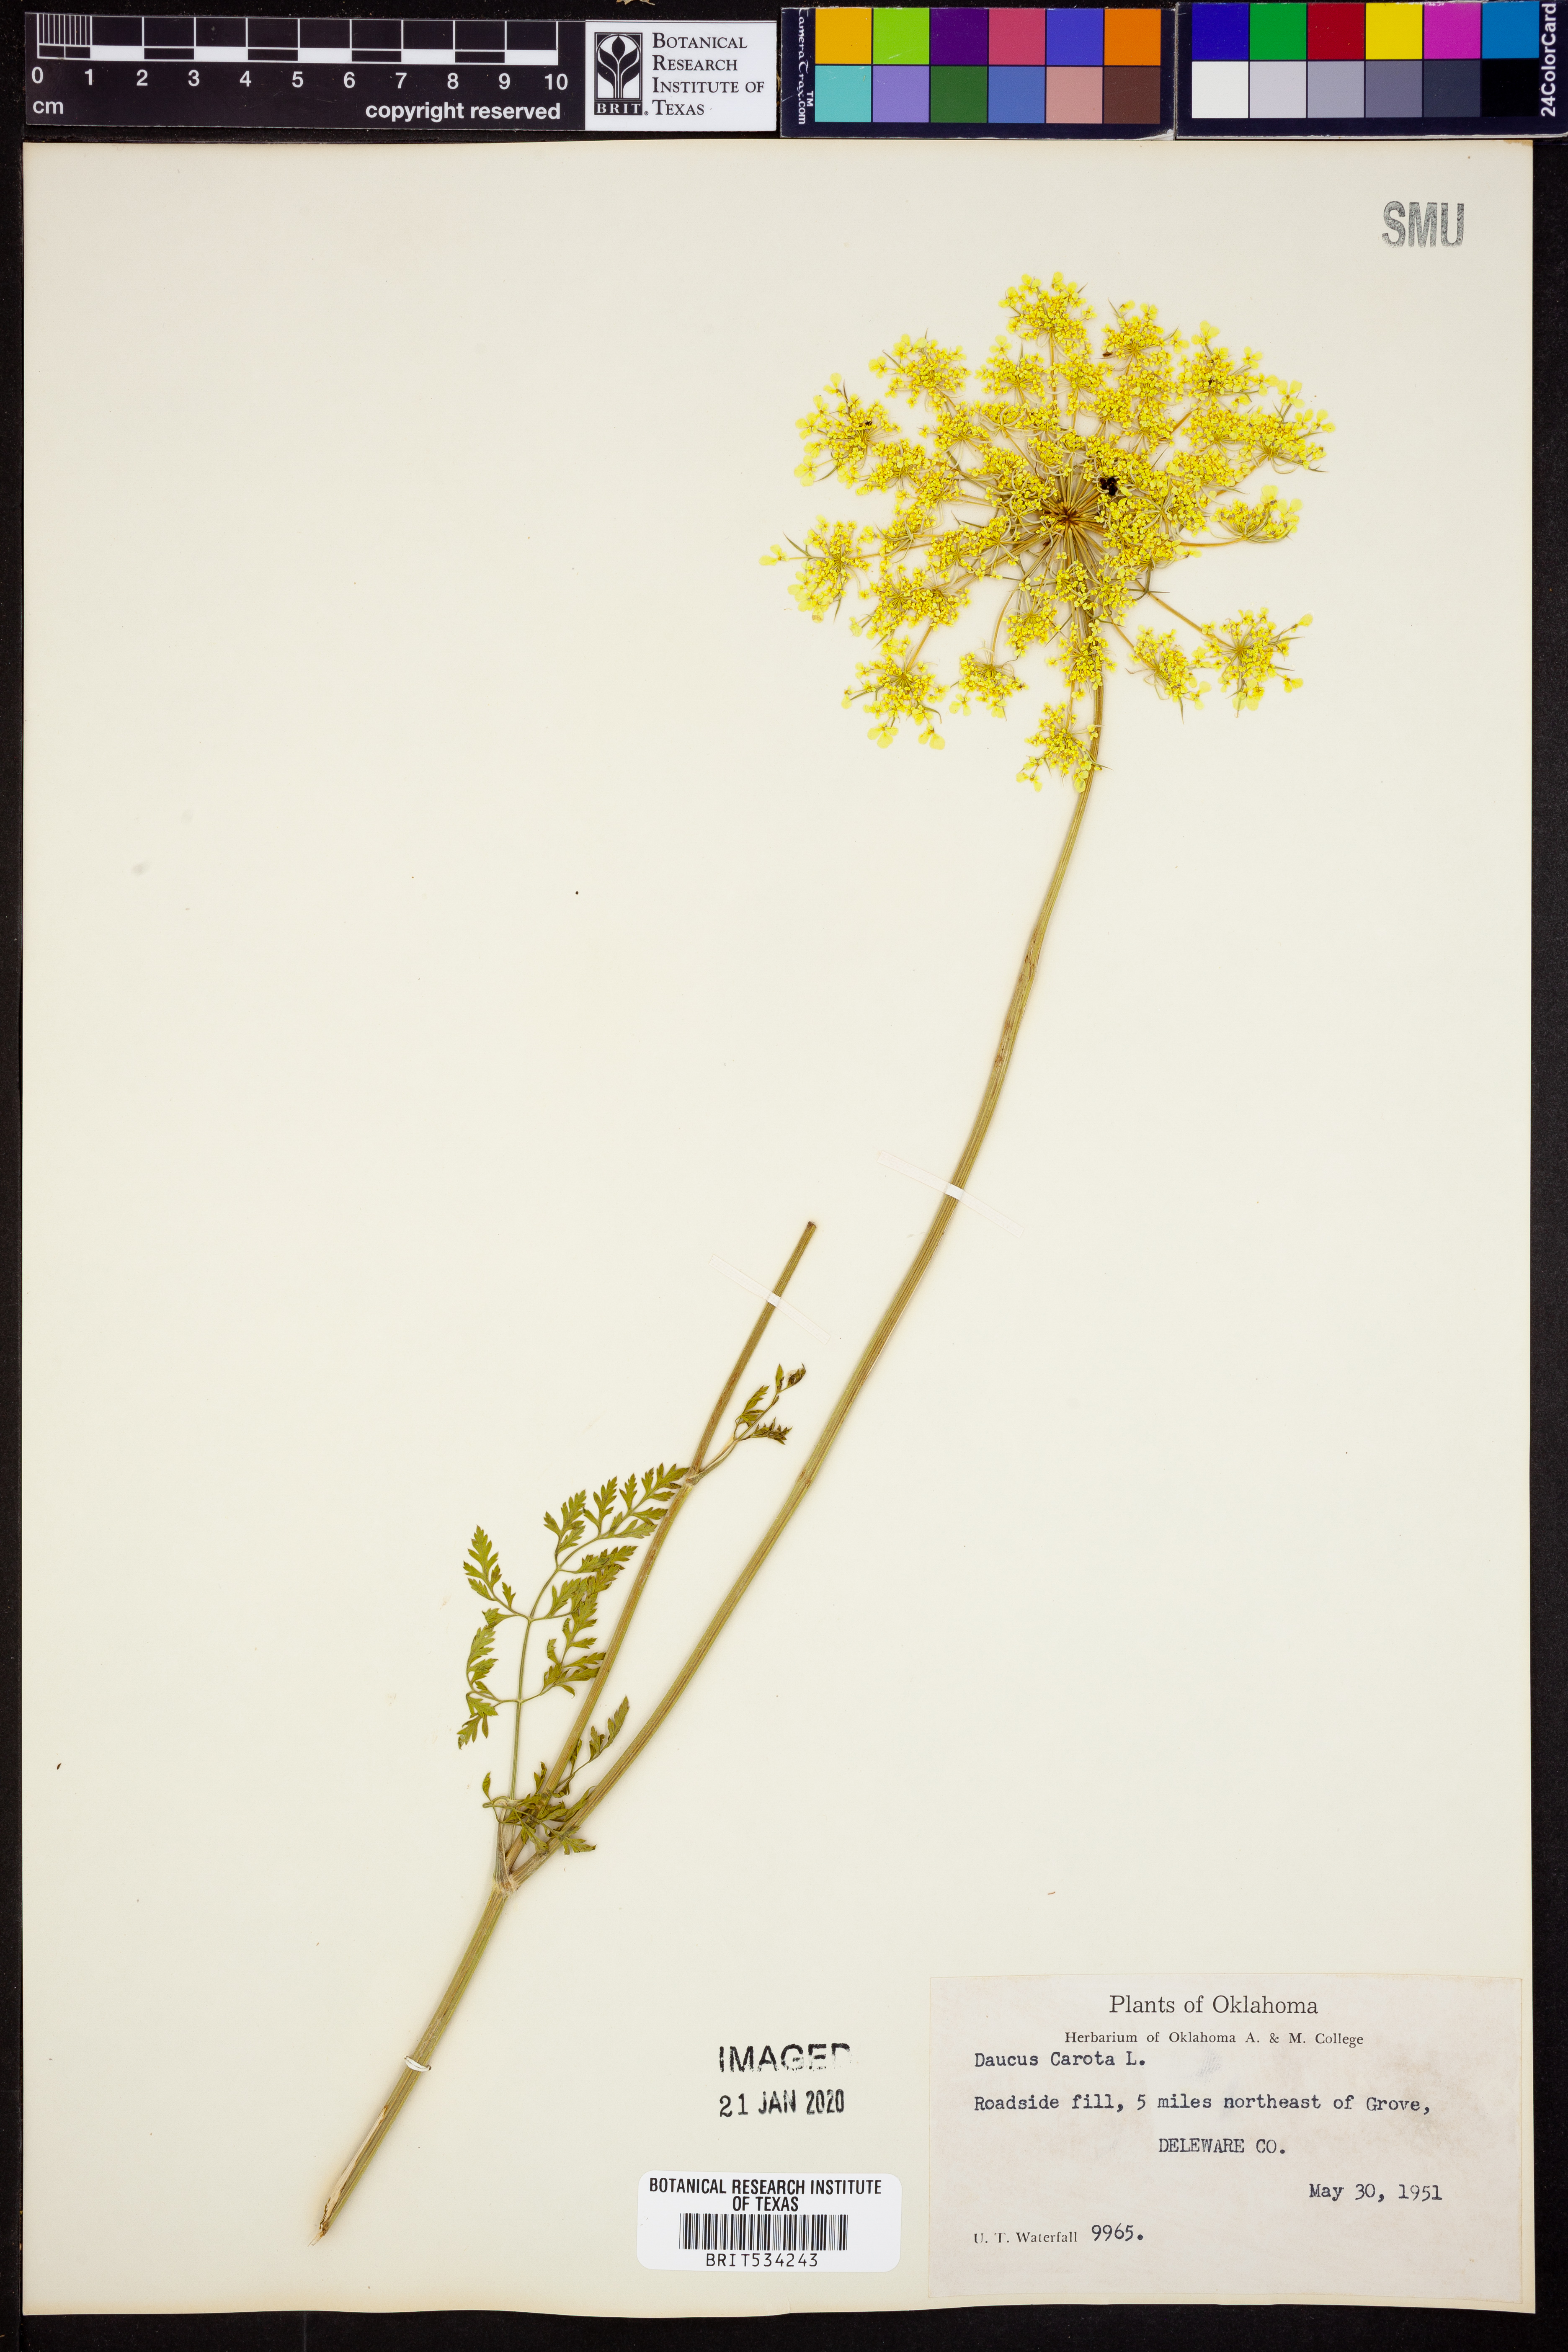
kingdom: Plantae
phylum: Tracheophyta
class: Magnoliopsida
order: Apiales
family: Apiaceae
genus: Daucus
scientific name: Daucus carota
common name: Wild carrot
